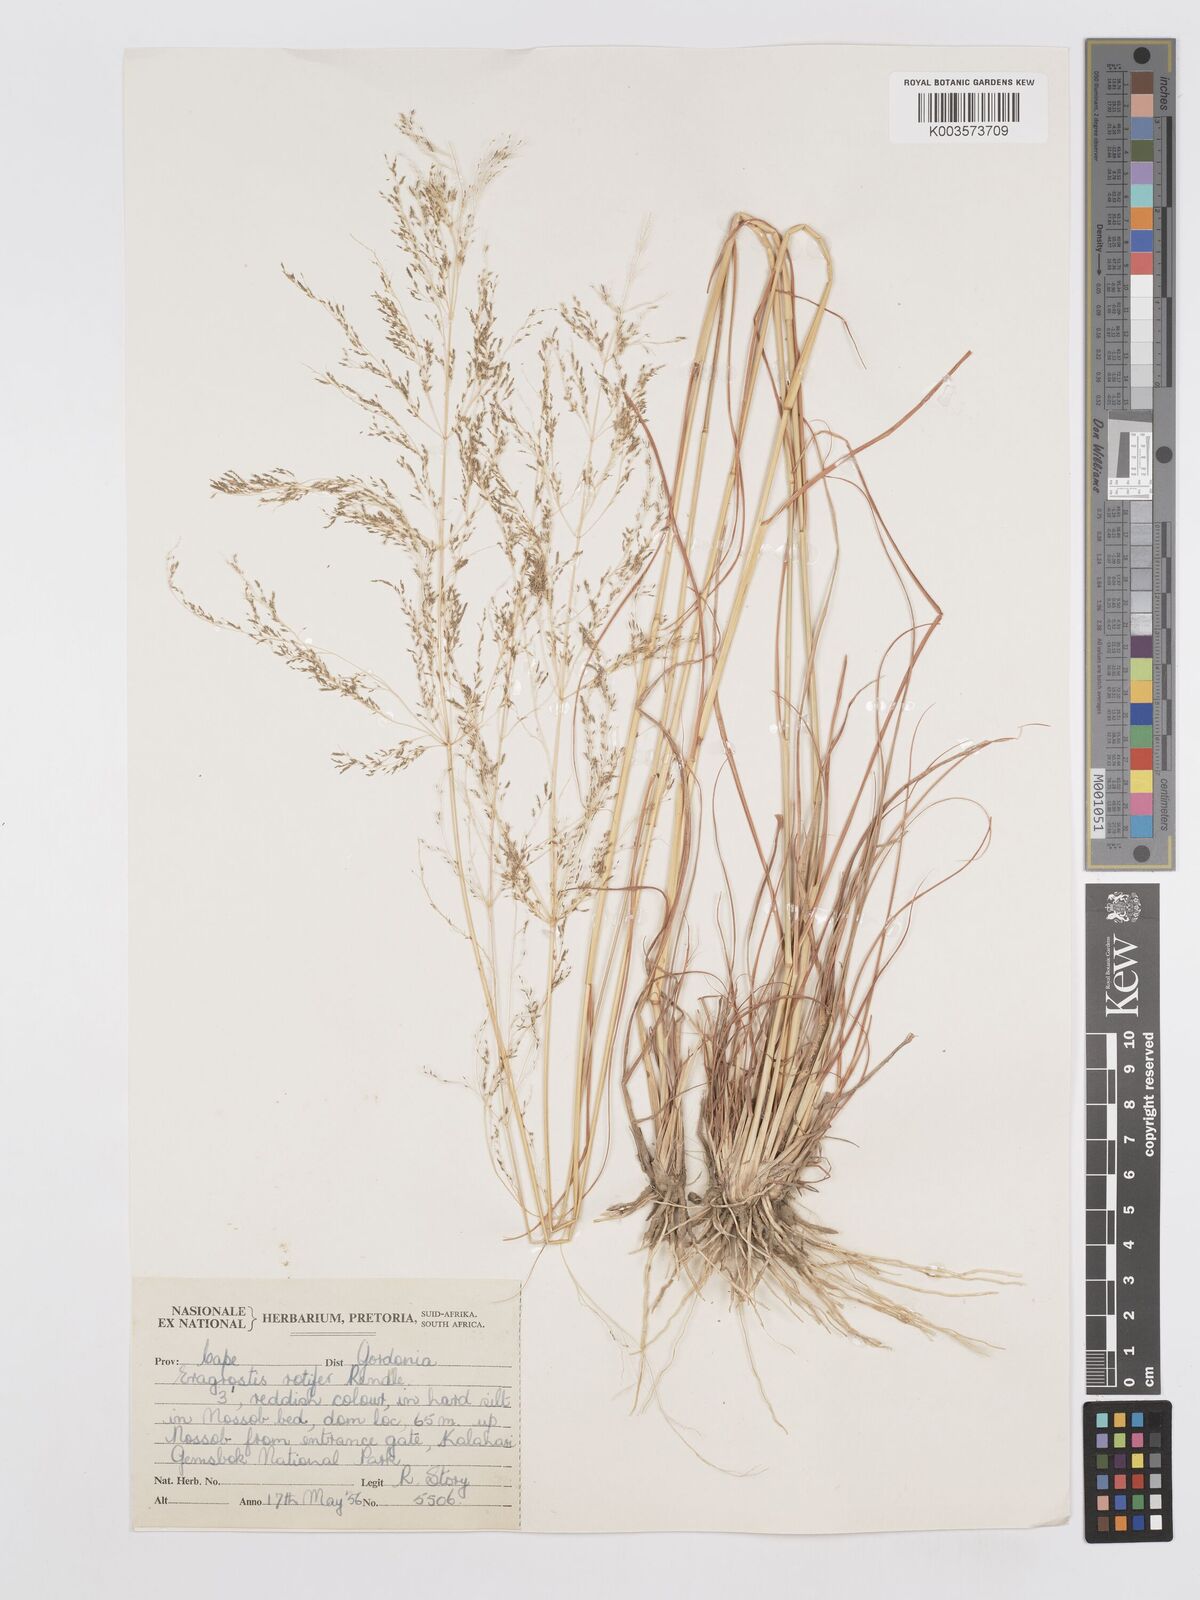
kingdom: Plantae
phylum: Tracheophyta
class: Liliopsida
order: Poales
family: Poaceae
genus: Eragrostis
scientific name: Eragrostis rotifer
